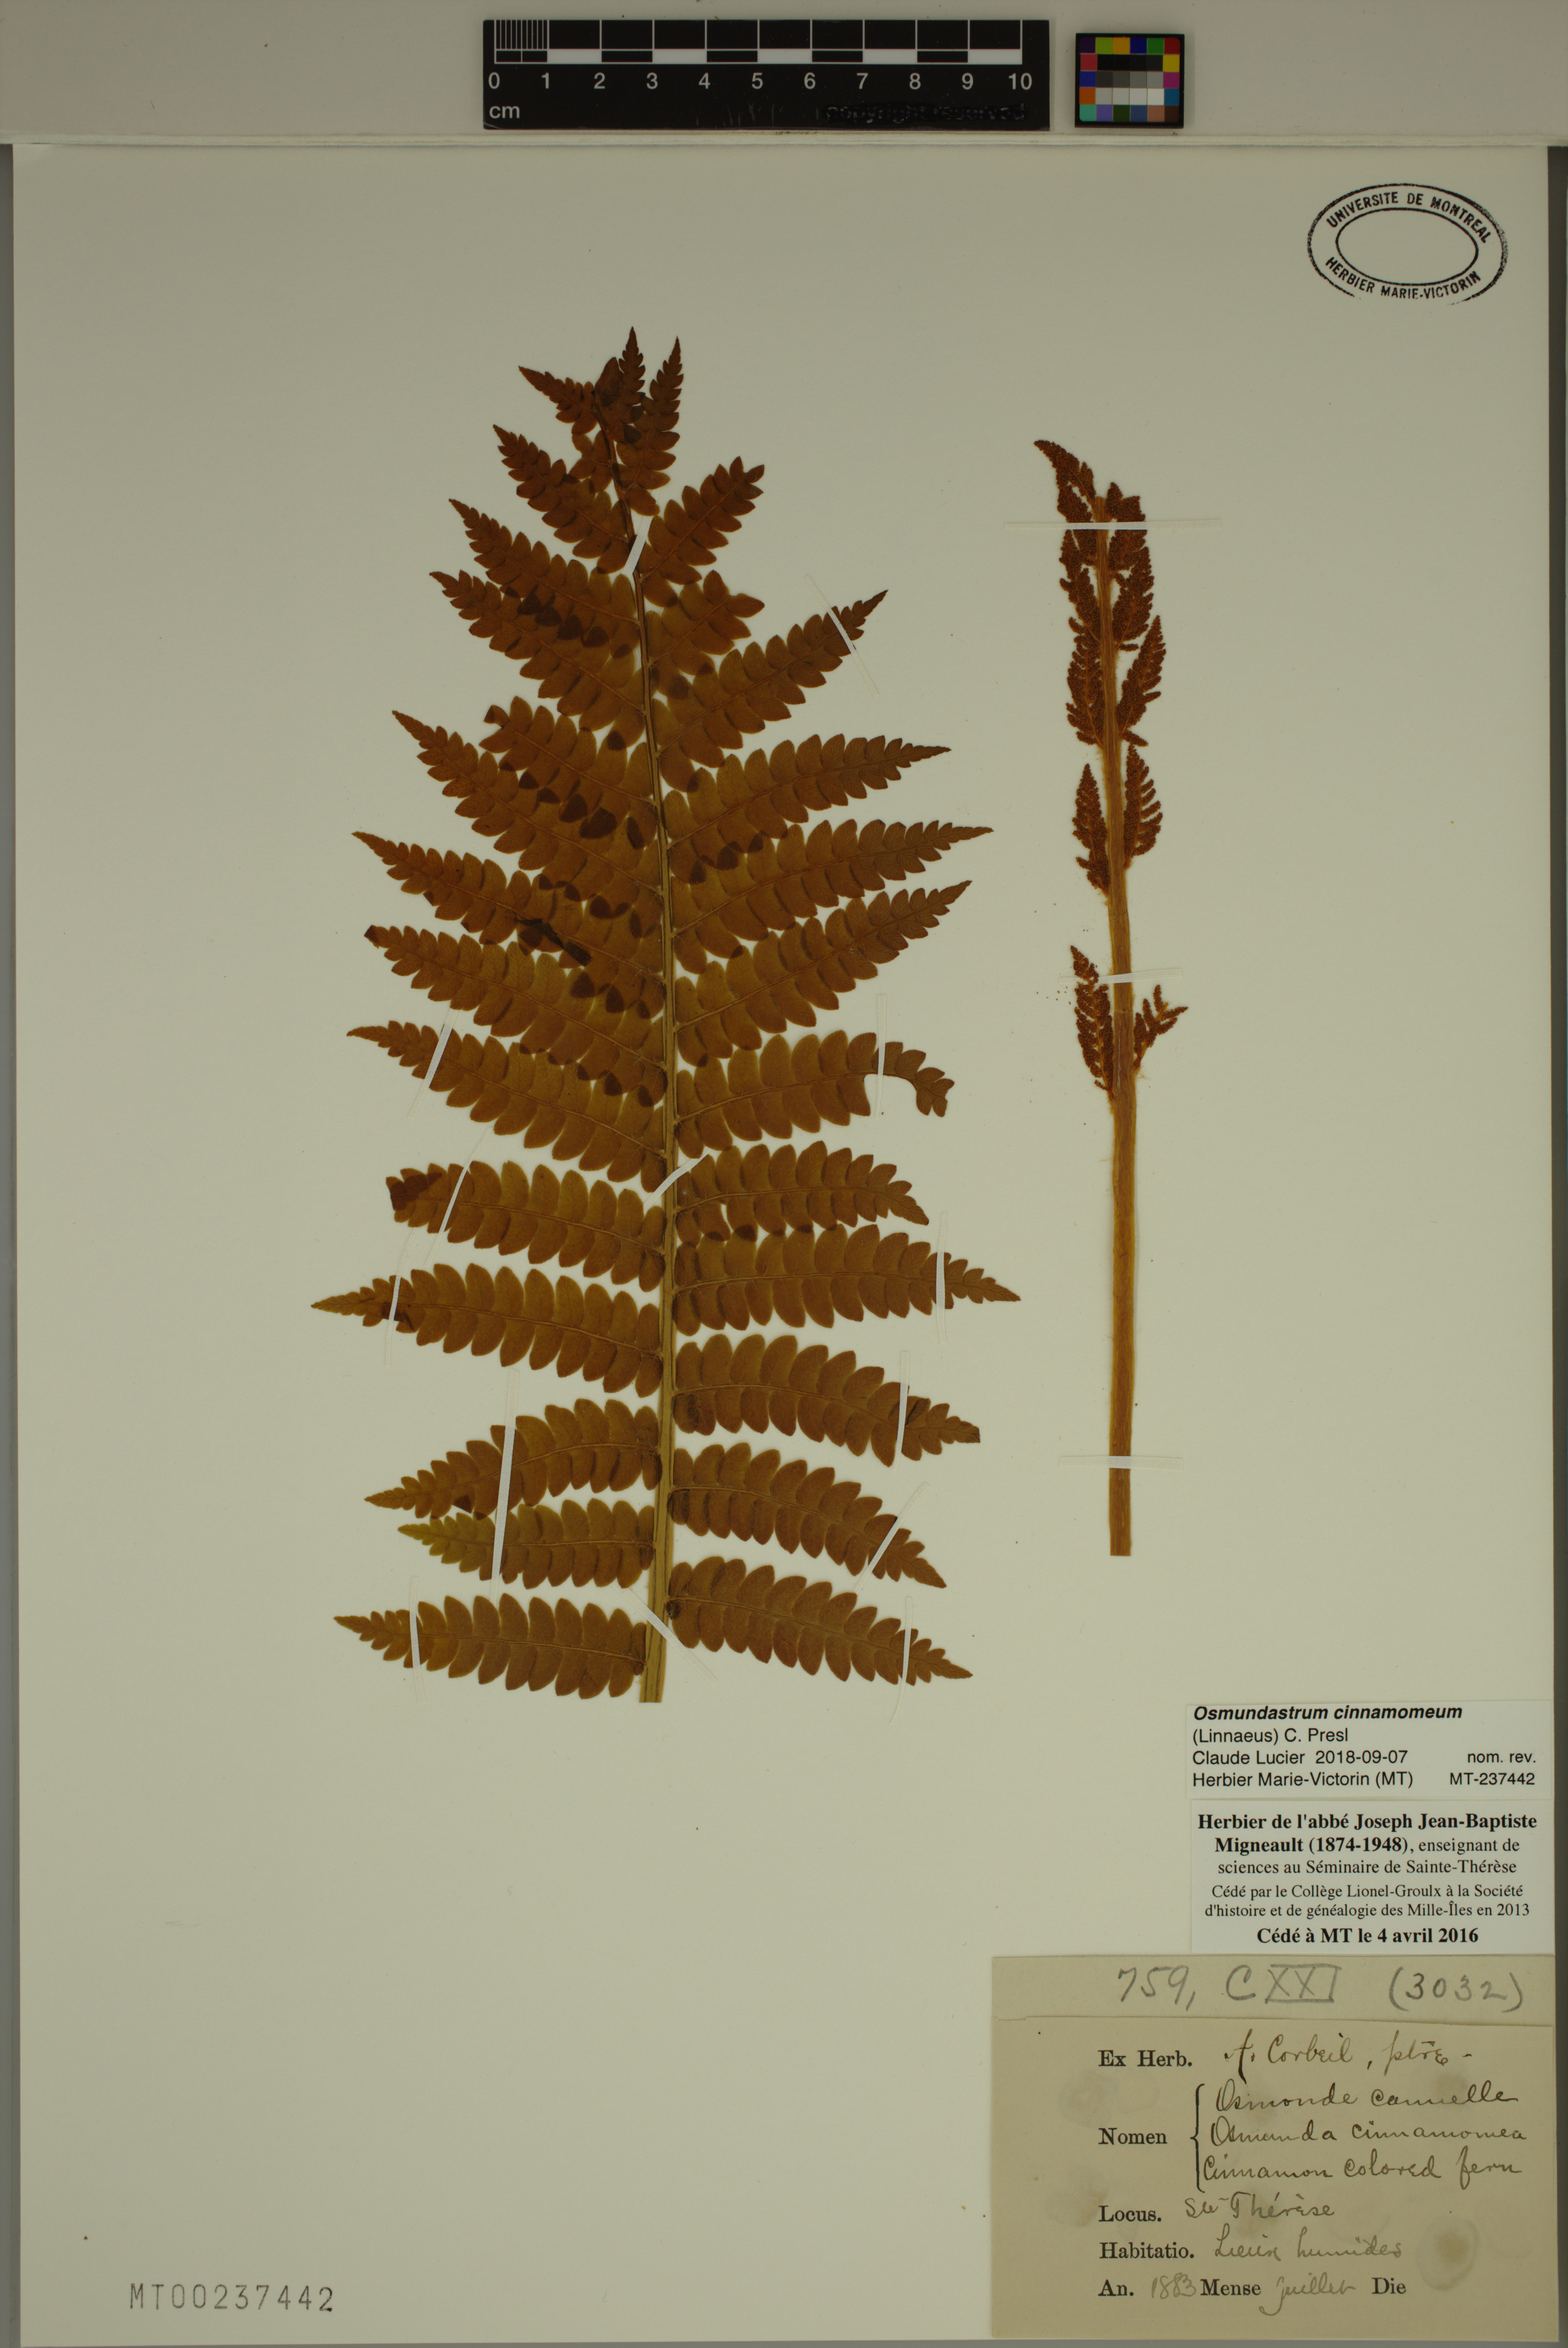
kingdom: Plantae
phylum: Tracheophyta
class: Polypodiopsida
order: Osmundales
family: Osmundaceae
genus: Osmundastrum
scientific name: Osmundastrum cinnamomeum
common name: Cinnamon fern
